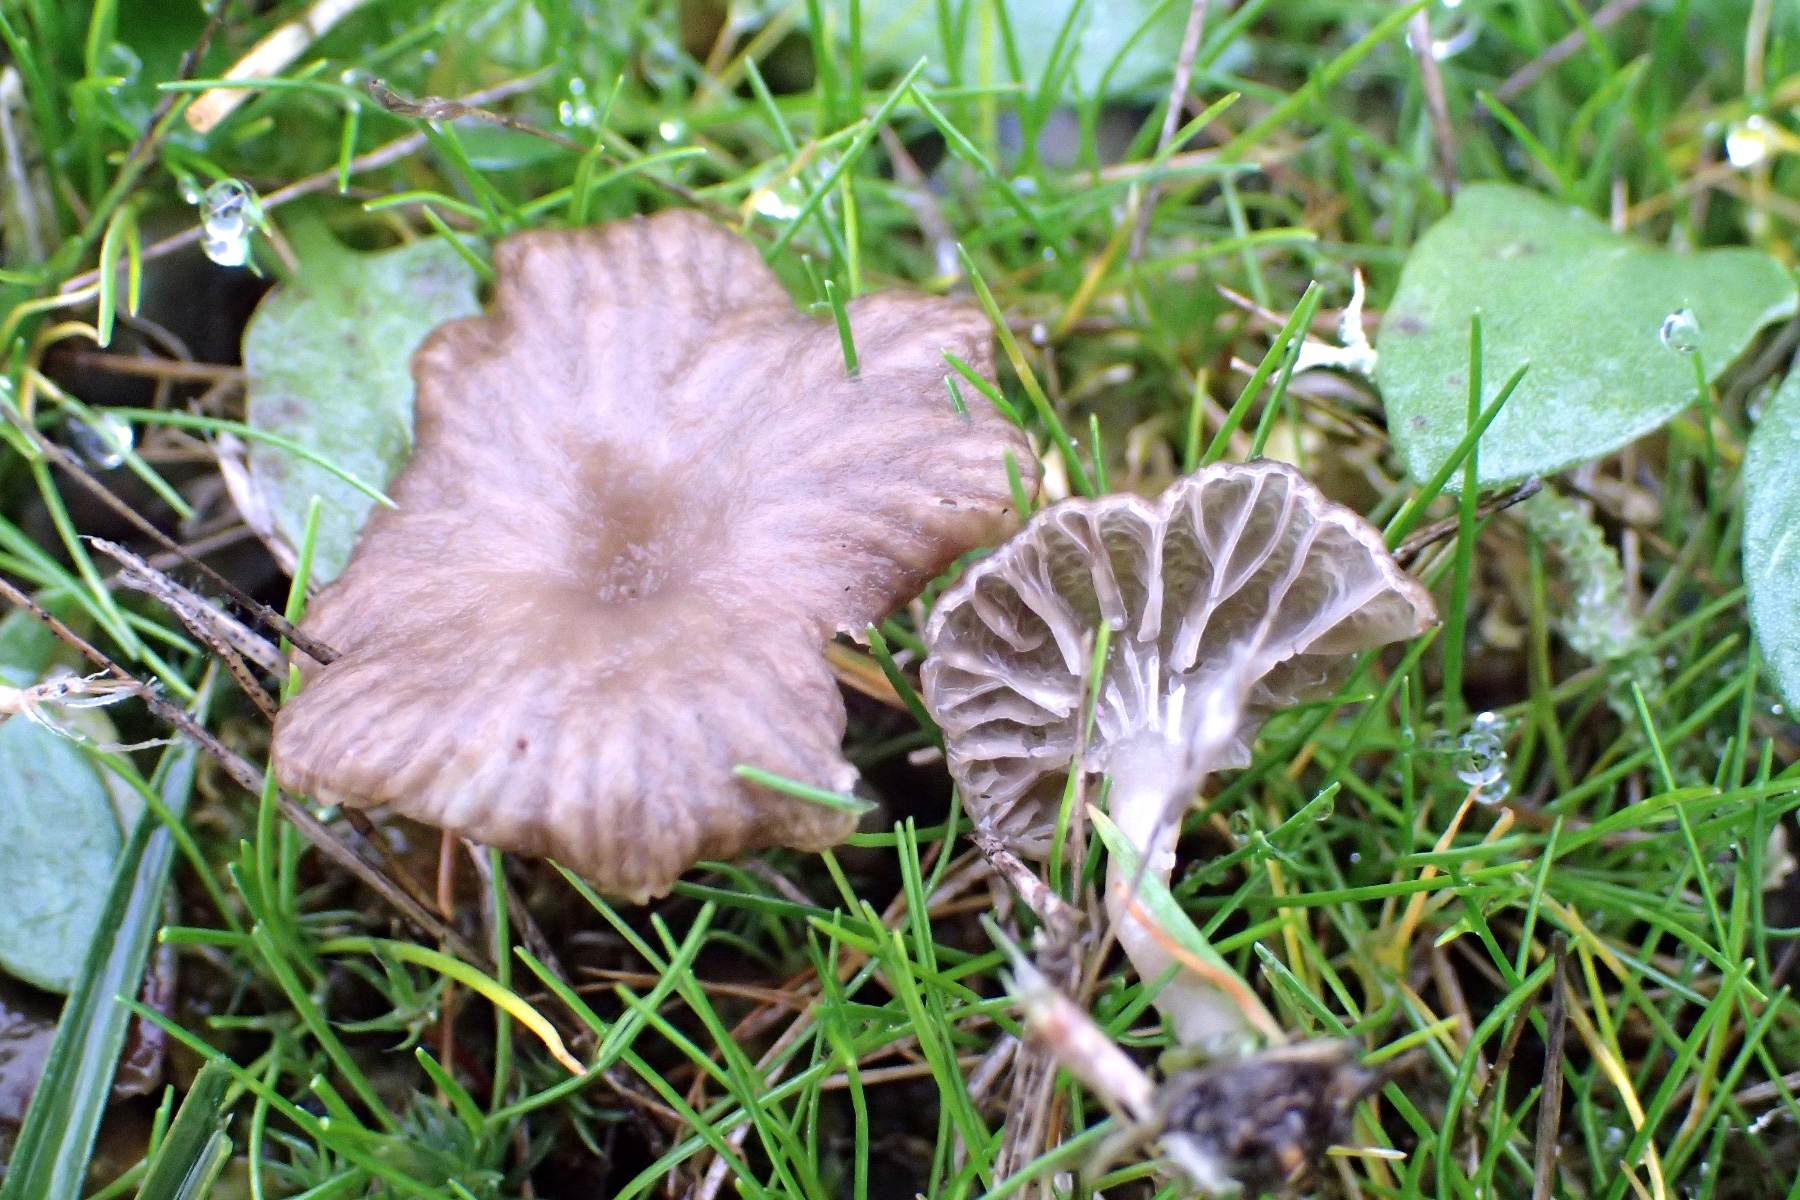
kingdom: Fungi
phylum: Basidiomycota
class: Agaricomycetes
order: Agaricales
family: Hygrophoraceae
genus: Arrhenia
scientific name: Arrhenia peltigerina
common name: skjoldlav-fontænehat
